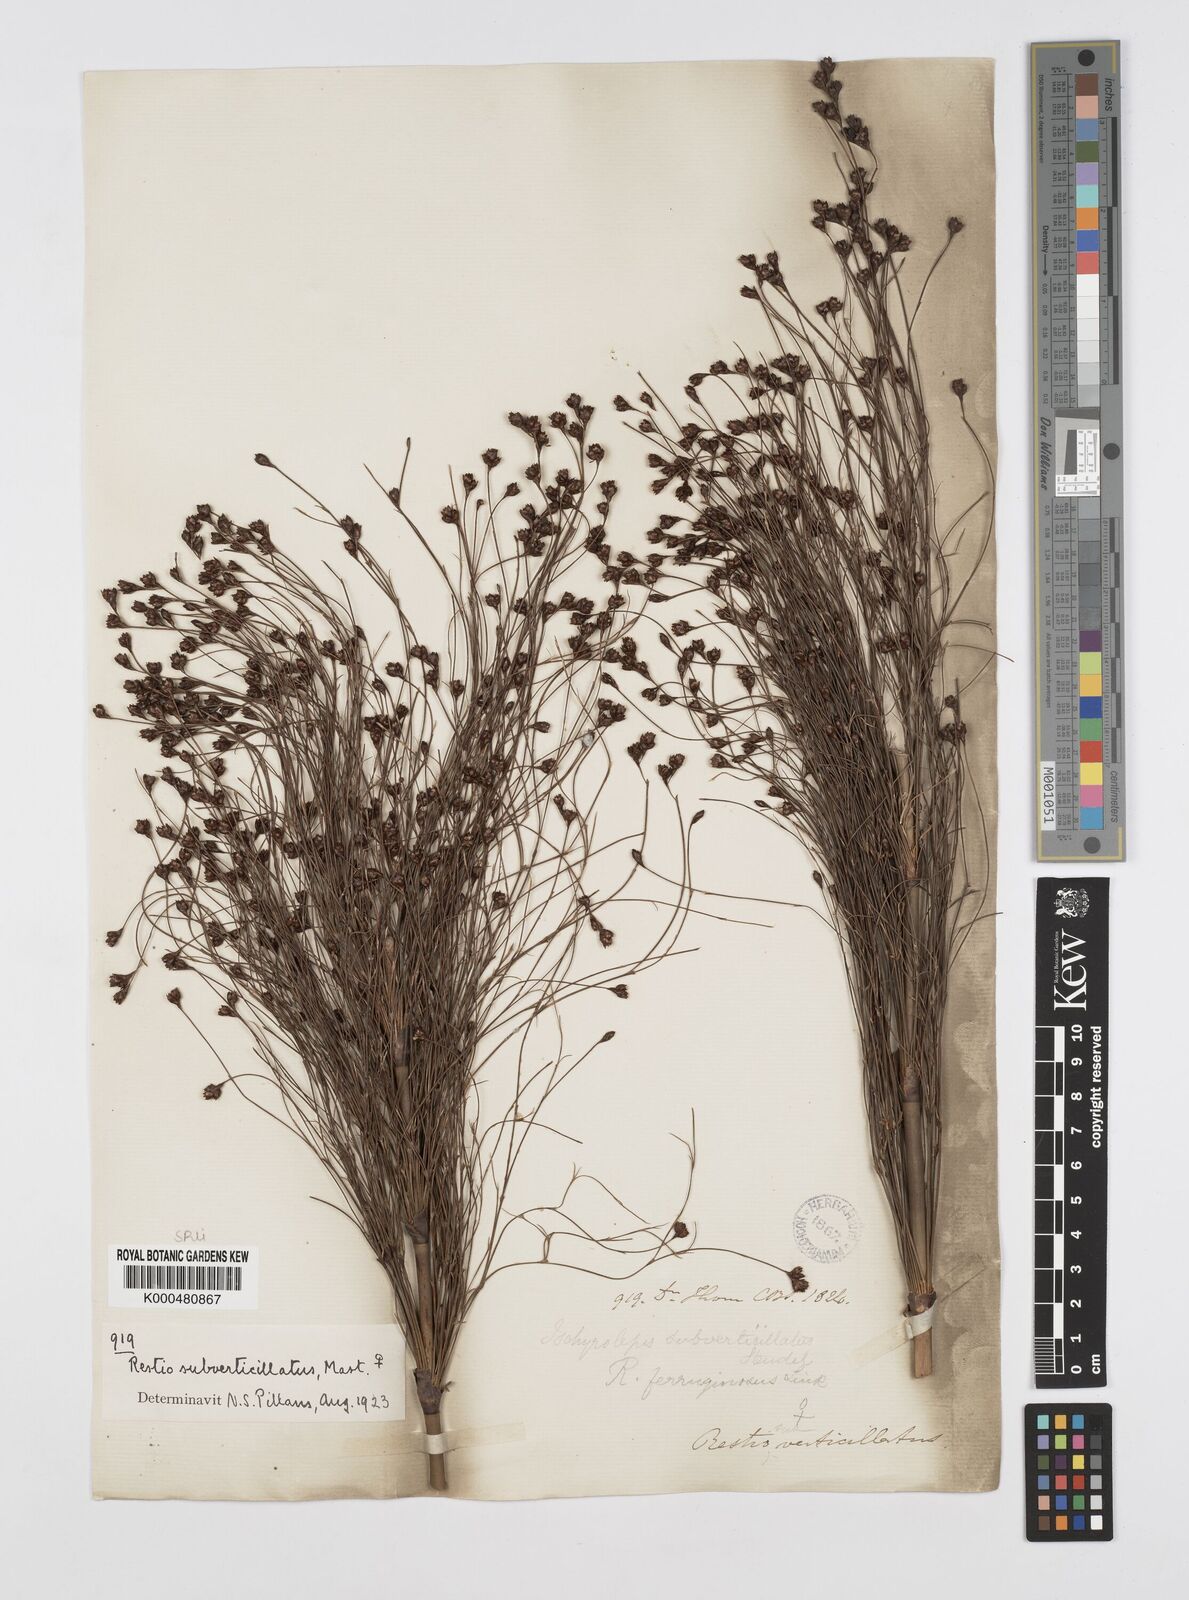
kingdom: Plantae
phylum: Tracheophyta
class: Liliopsida
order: Poales
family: Restionaceae
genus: Restio
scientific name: Restio subverticillatus
